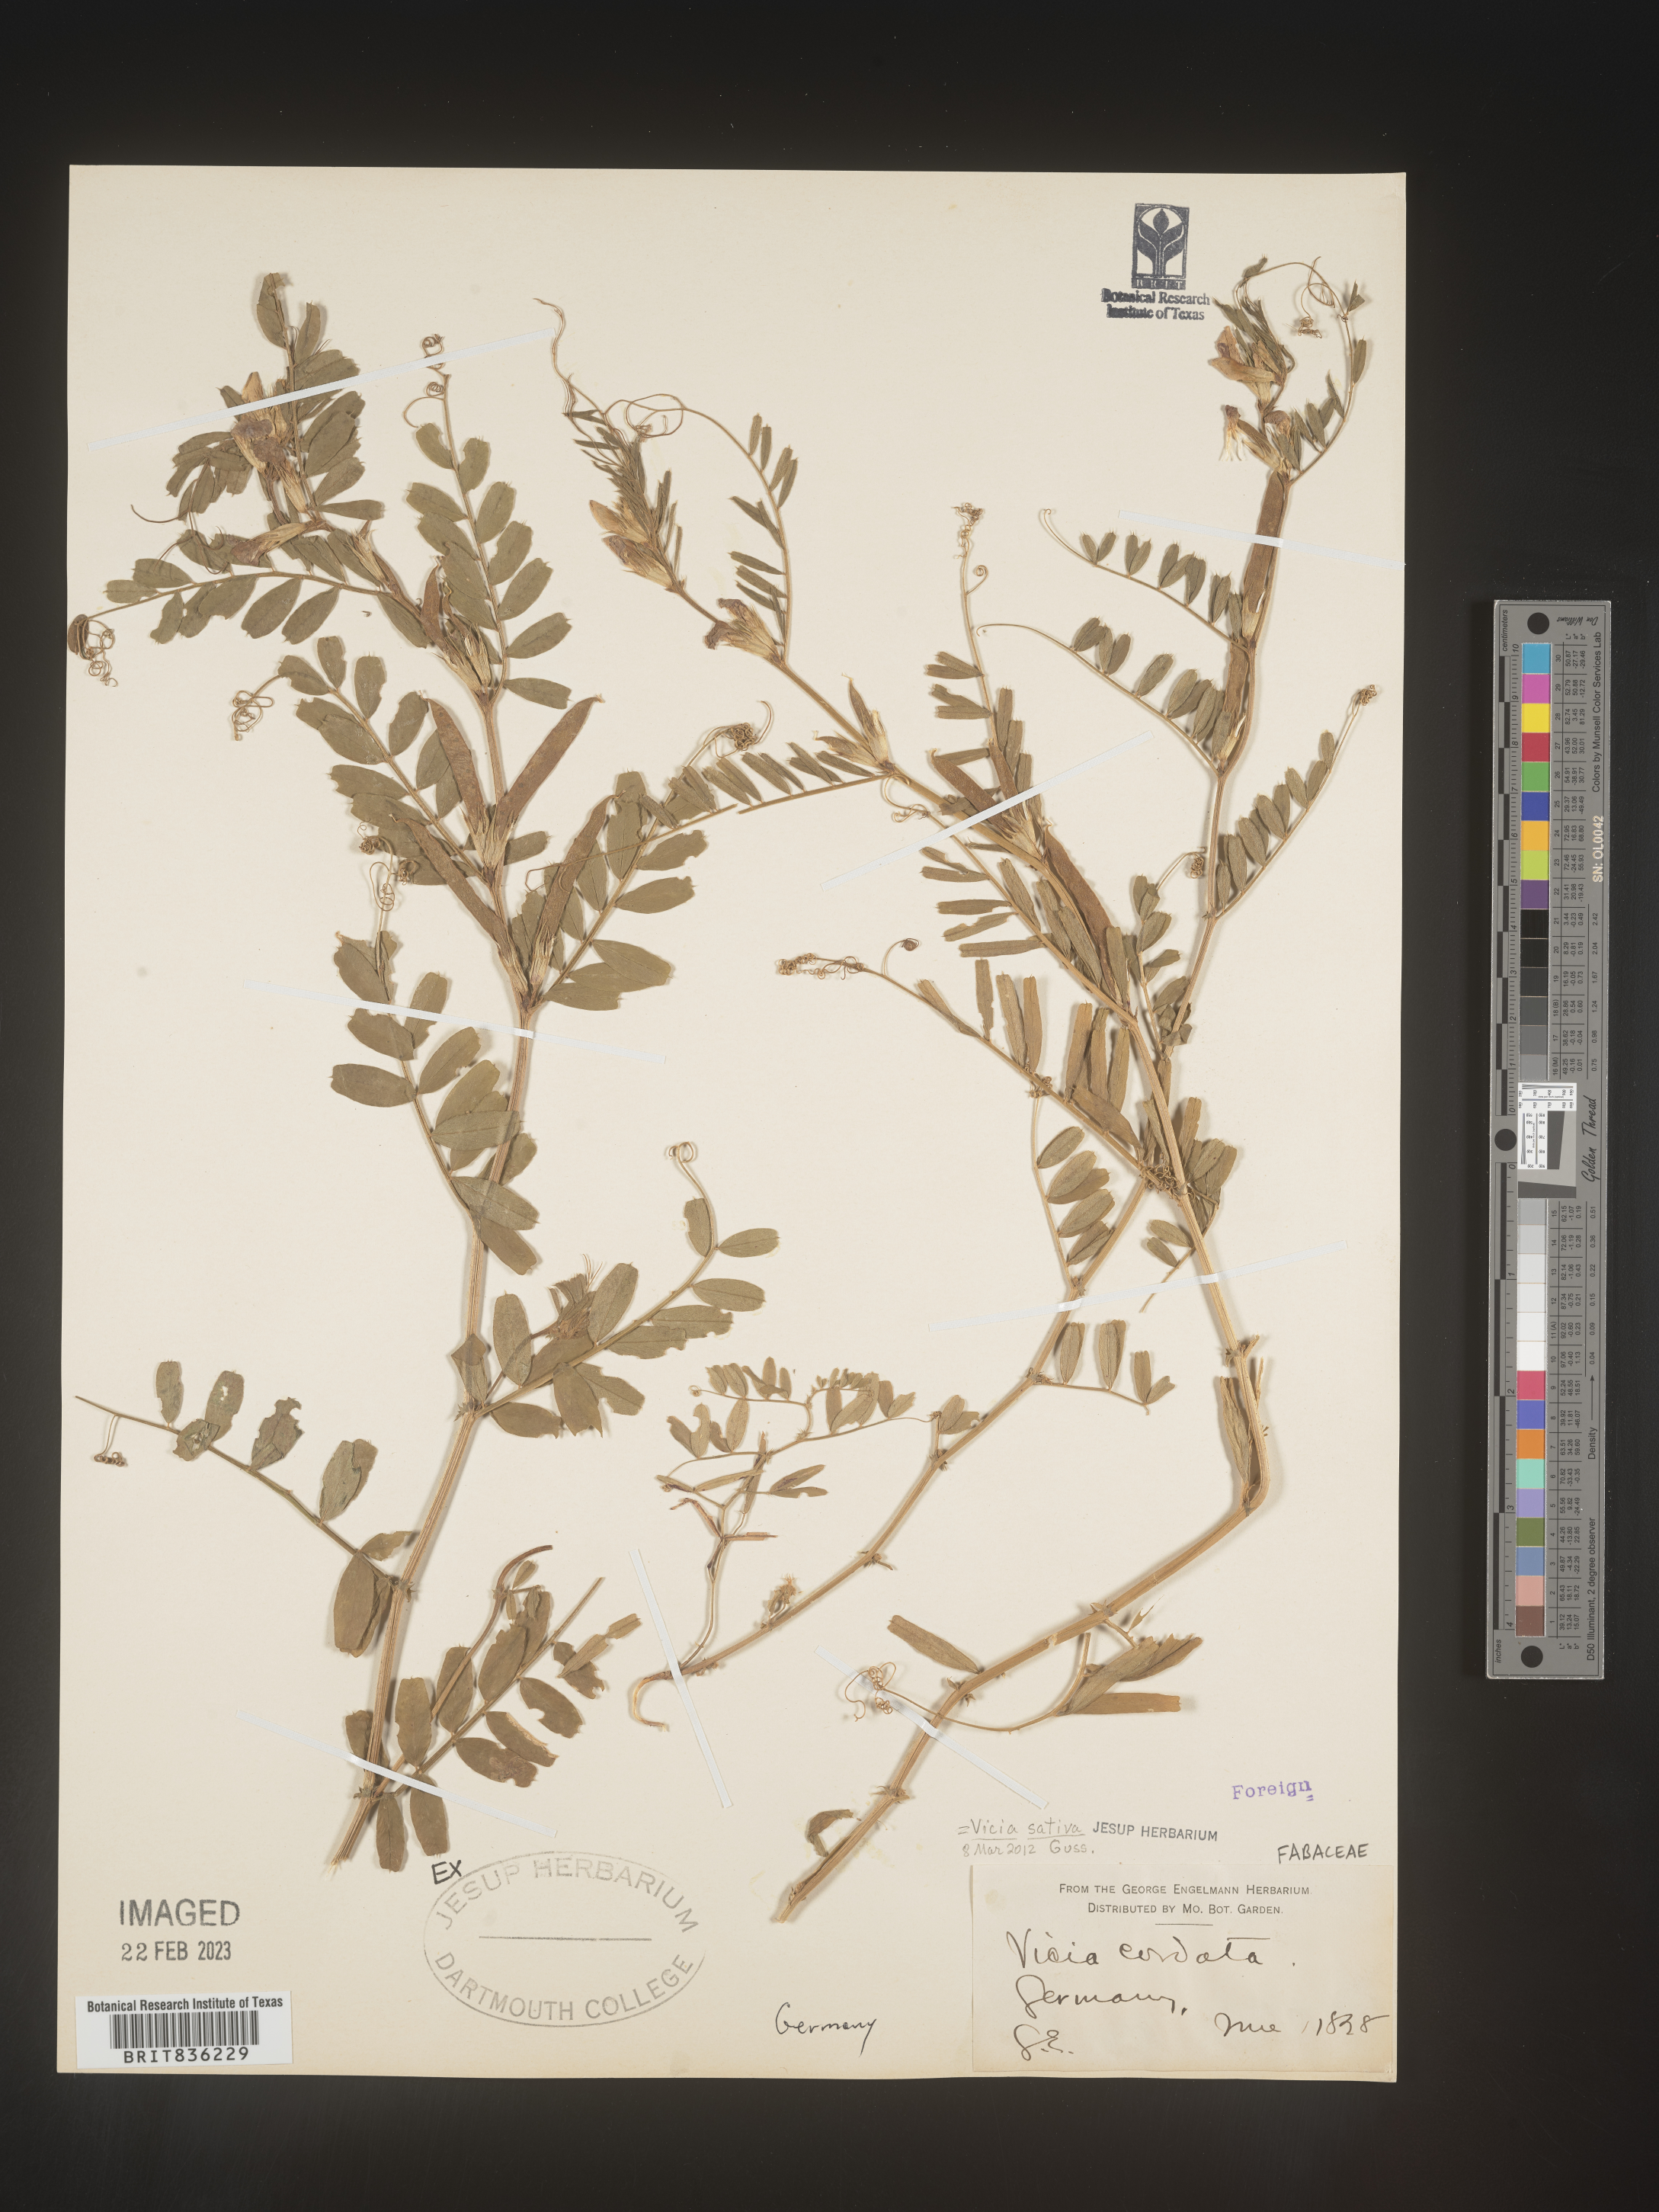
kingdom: Plantae
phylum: Tracheophyta
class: Magnoliopsida
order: Fabales
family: Fabaceae
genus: Vicia
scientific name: Vicia
